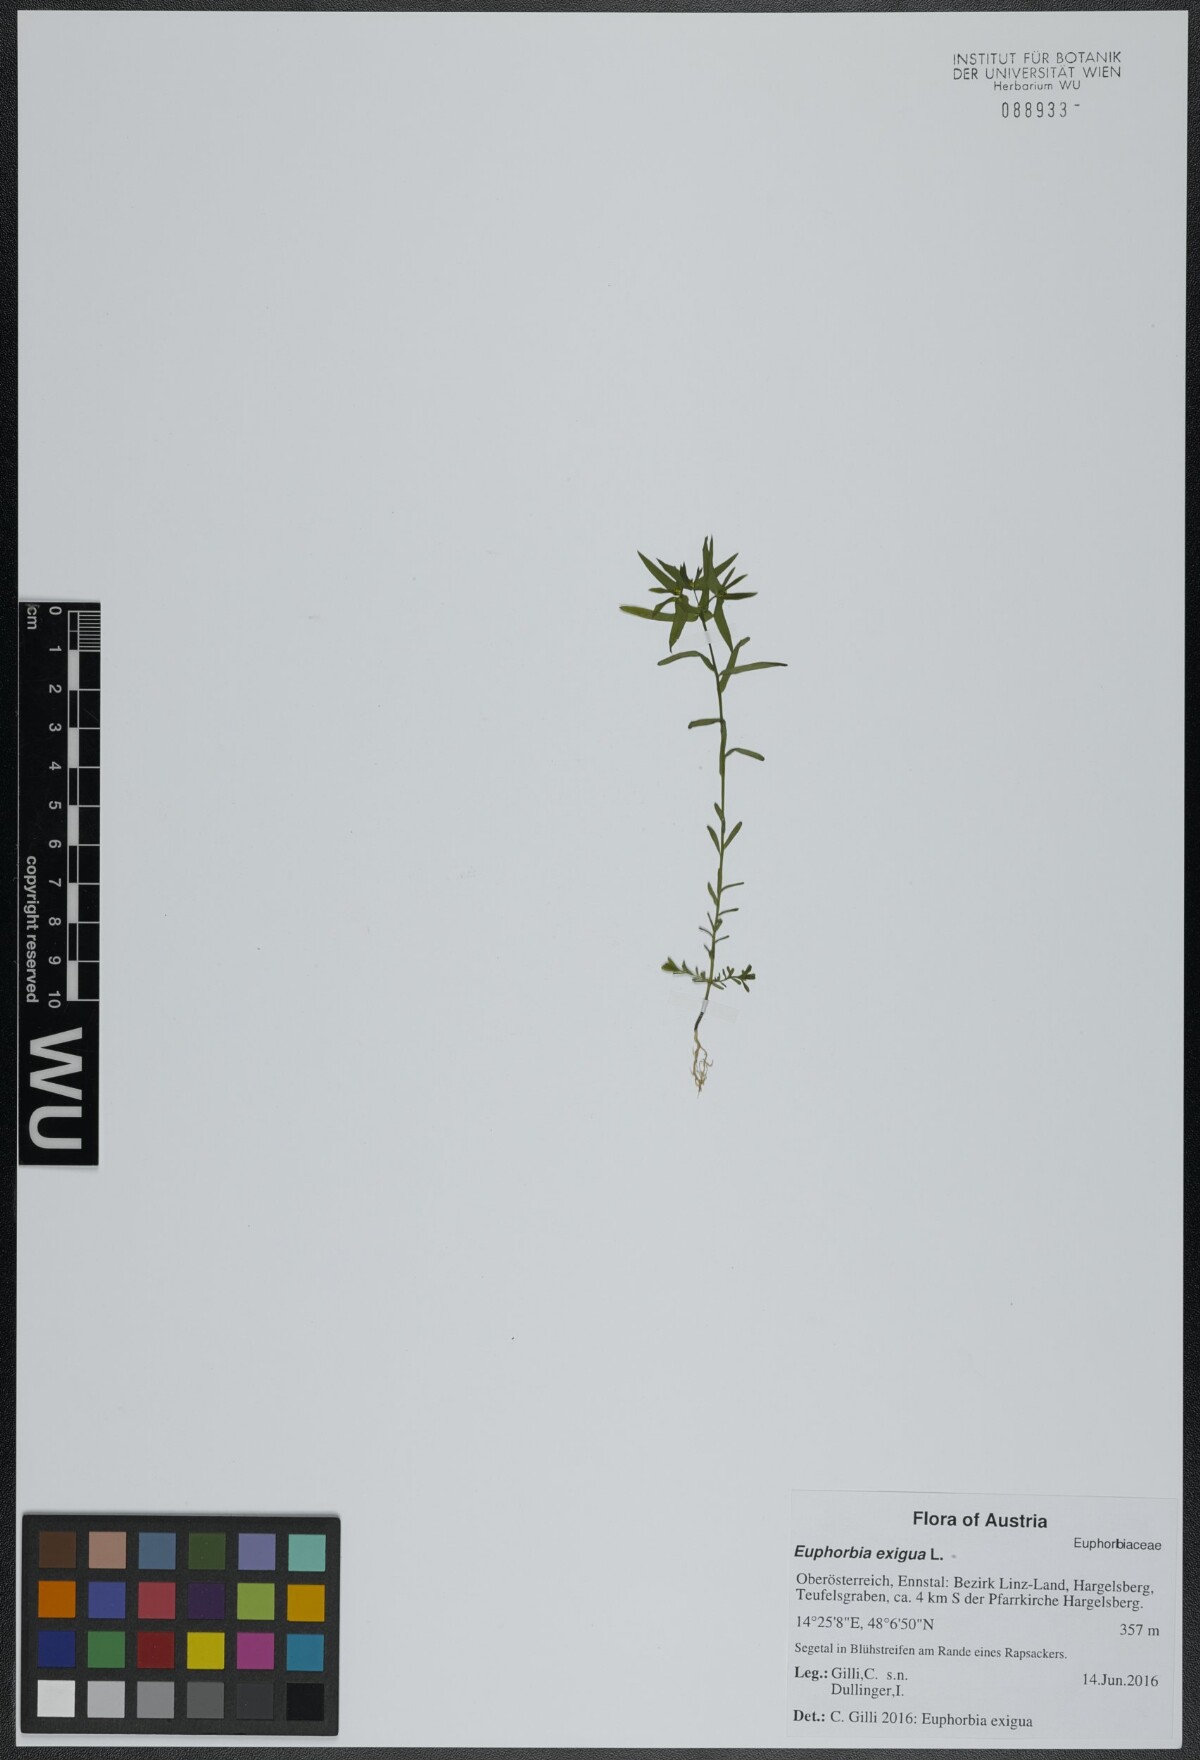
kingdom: Plantae
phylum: Tracheophyta
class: Magnoliopsida
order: Malpighiales
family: Euphorbiaceae
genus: Euphorbia
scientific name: Euphorbia exigua
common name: Dwarf spurge
